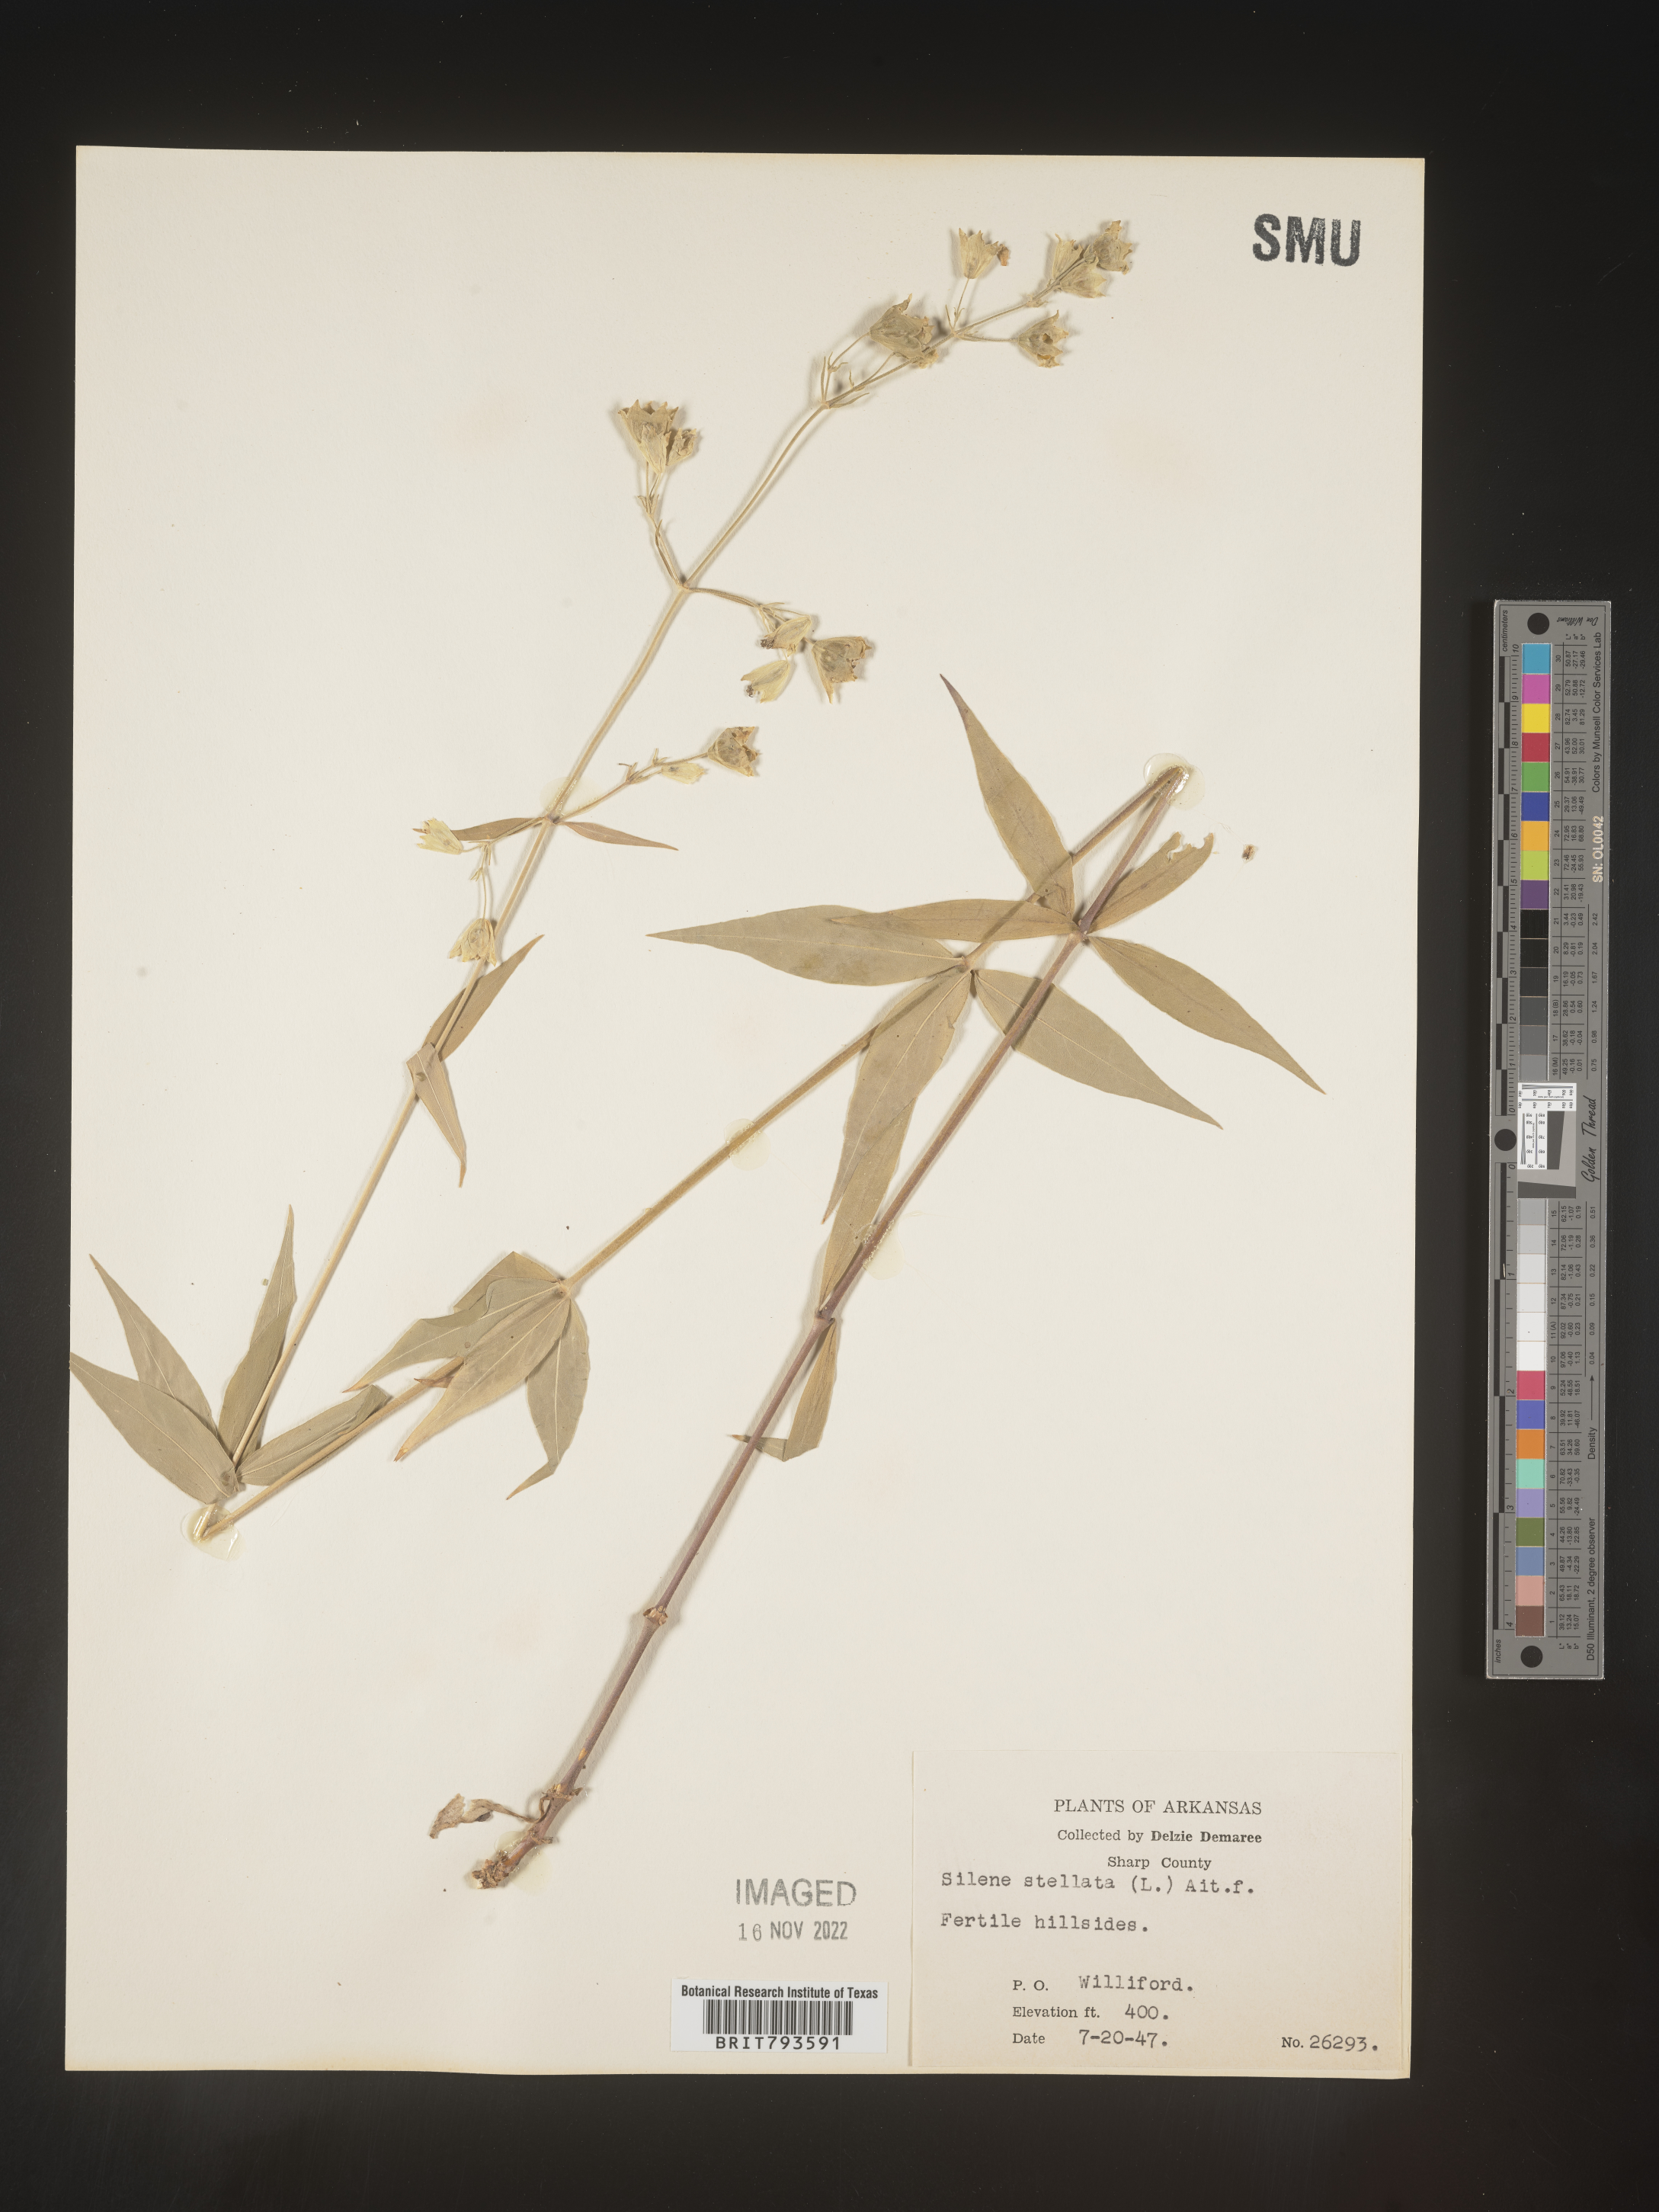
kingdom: Plantae
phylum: Tracheophyta
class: Magnoliopsida
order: Caryophyllales
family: Caryophyllaceae
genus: Silene
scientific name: Silene stellata
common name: Starry campion
